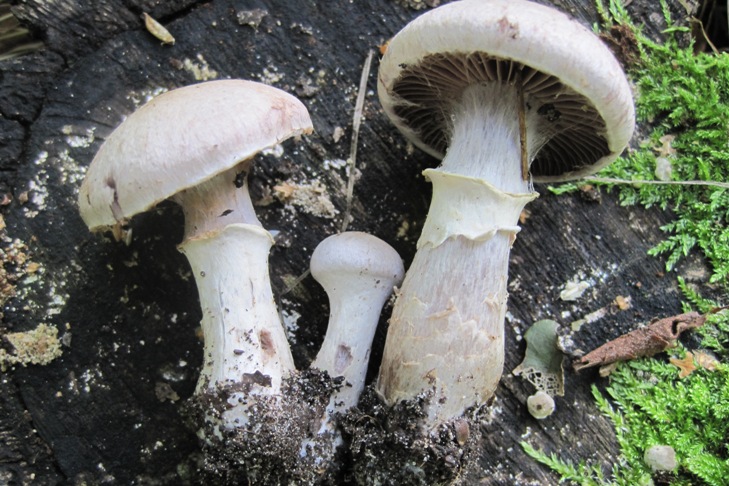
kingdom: Fungi
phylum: Basidiomycota
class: Agaricomycetes
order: Agaricales
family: Cortinariaceae
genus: Cortinarius
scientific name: Cortinarius torvus
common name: champignonagtig slørhat
